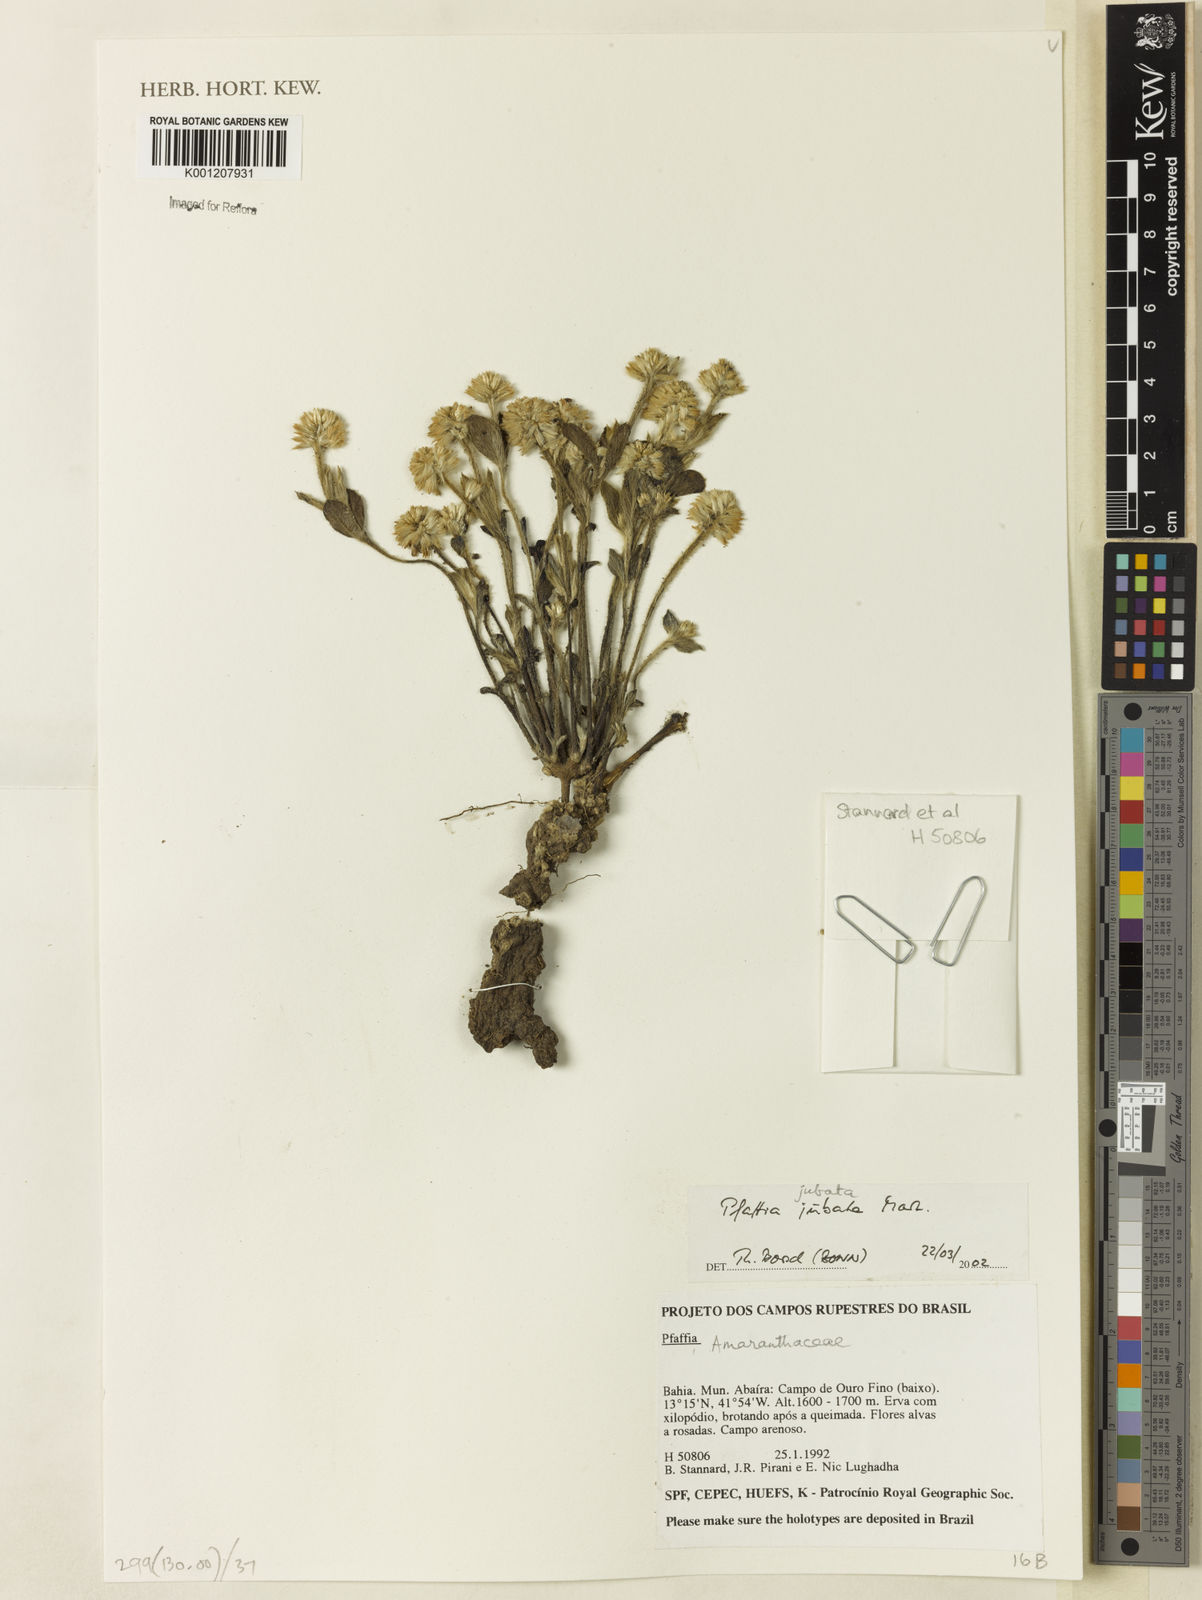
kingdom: Plantae
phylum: Tracheophyta
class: Magnoliopsida
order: Caryophyllales
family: Amaranthaceae
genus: Pfaffia
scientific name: Pfaffia jubata
